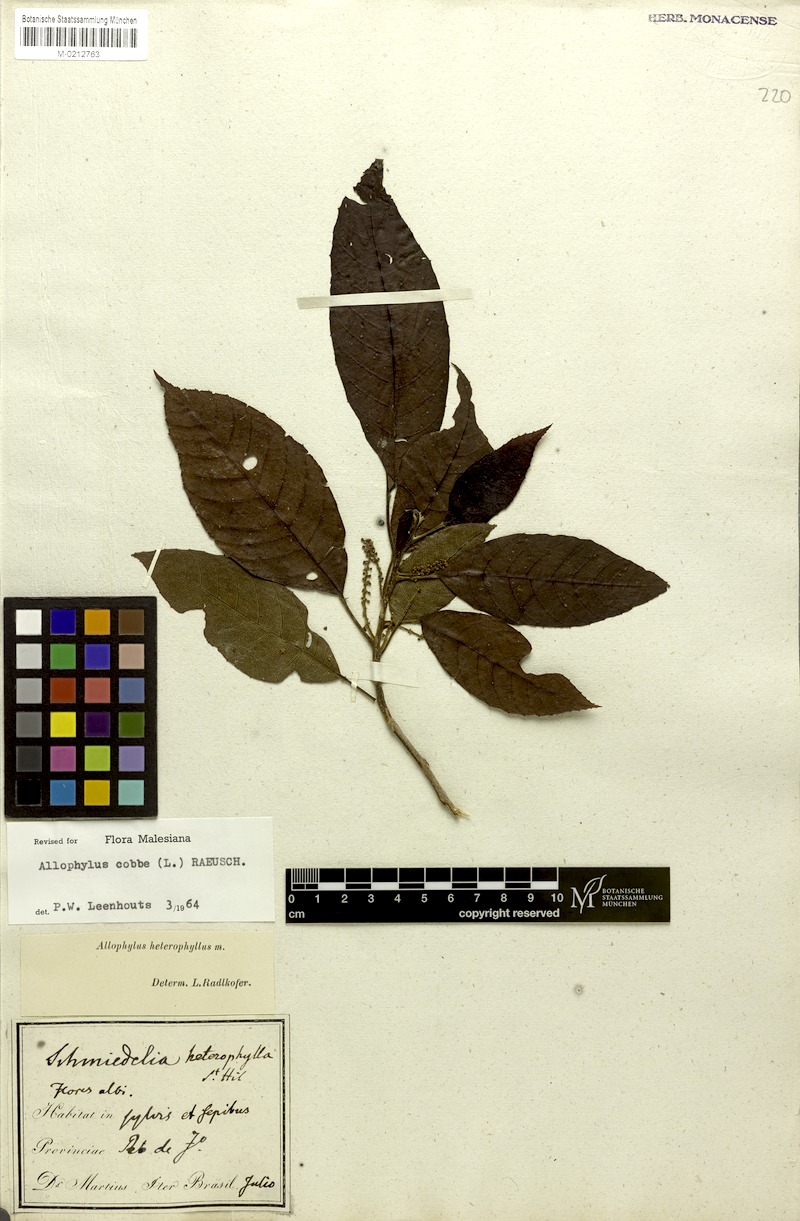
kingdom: Plantae
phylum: Tracheophyta
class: Magnoliopsida
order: Sapindales
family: Sapindaceae
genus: Allophylus
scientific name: Allophylus heterophyllus
